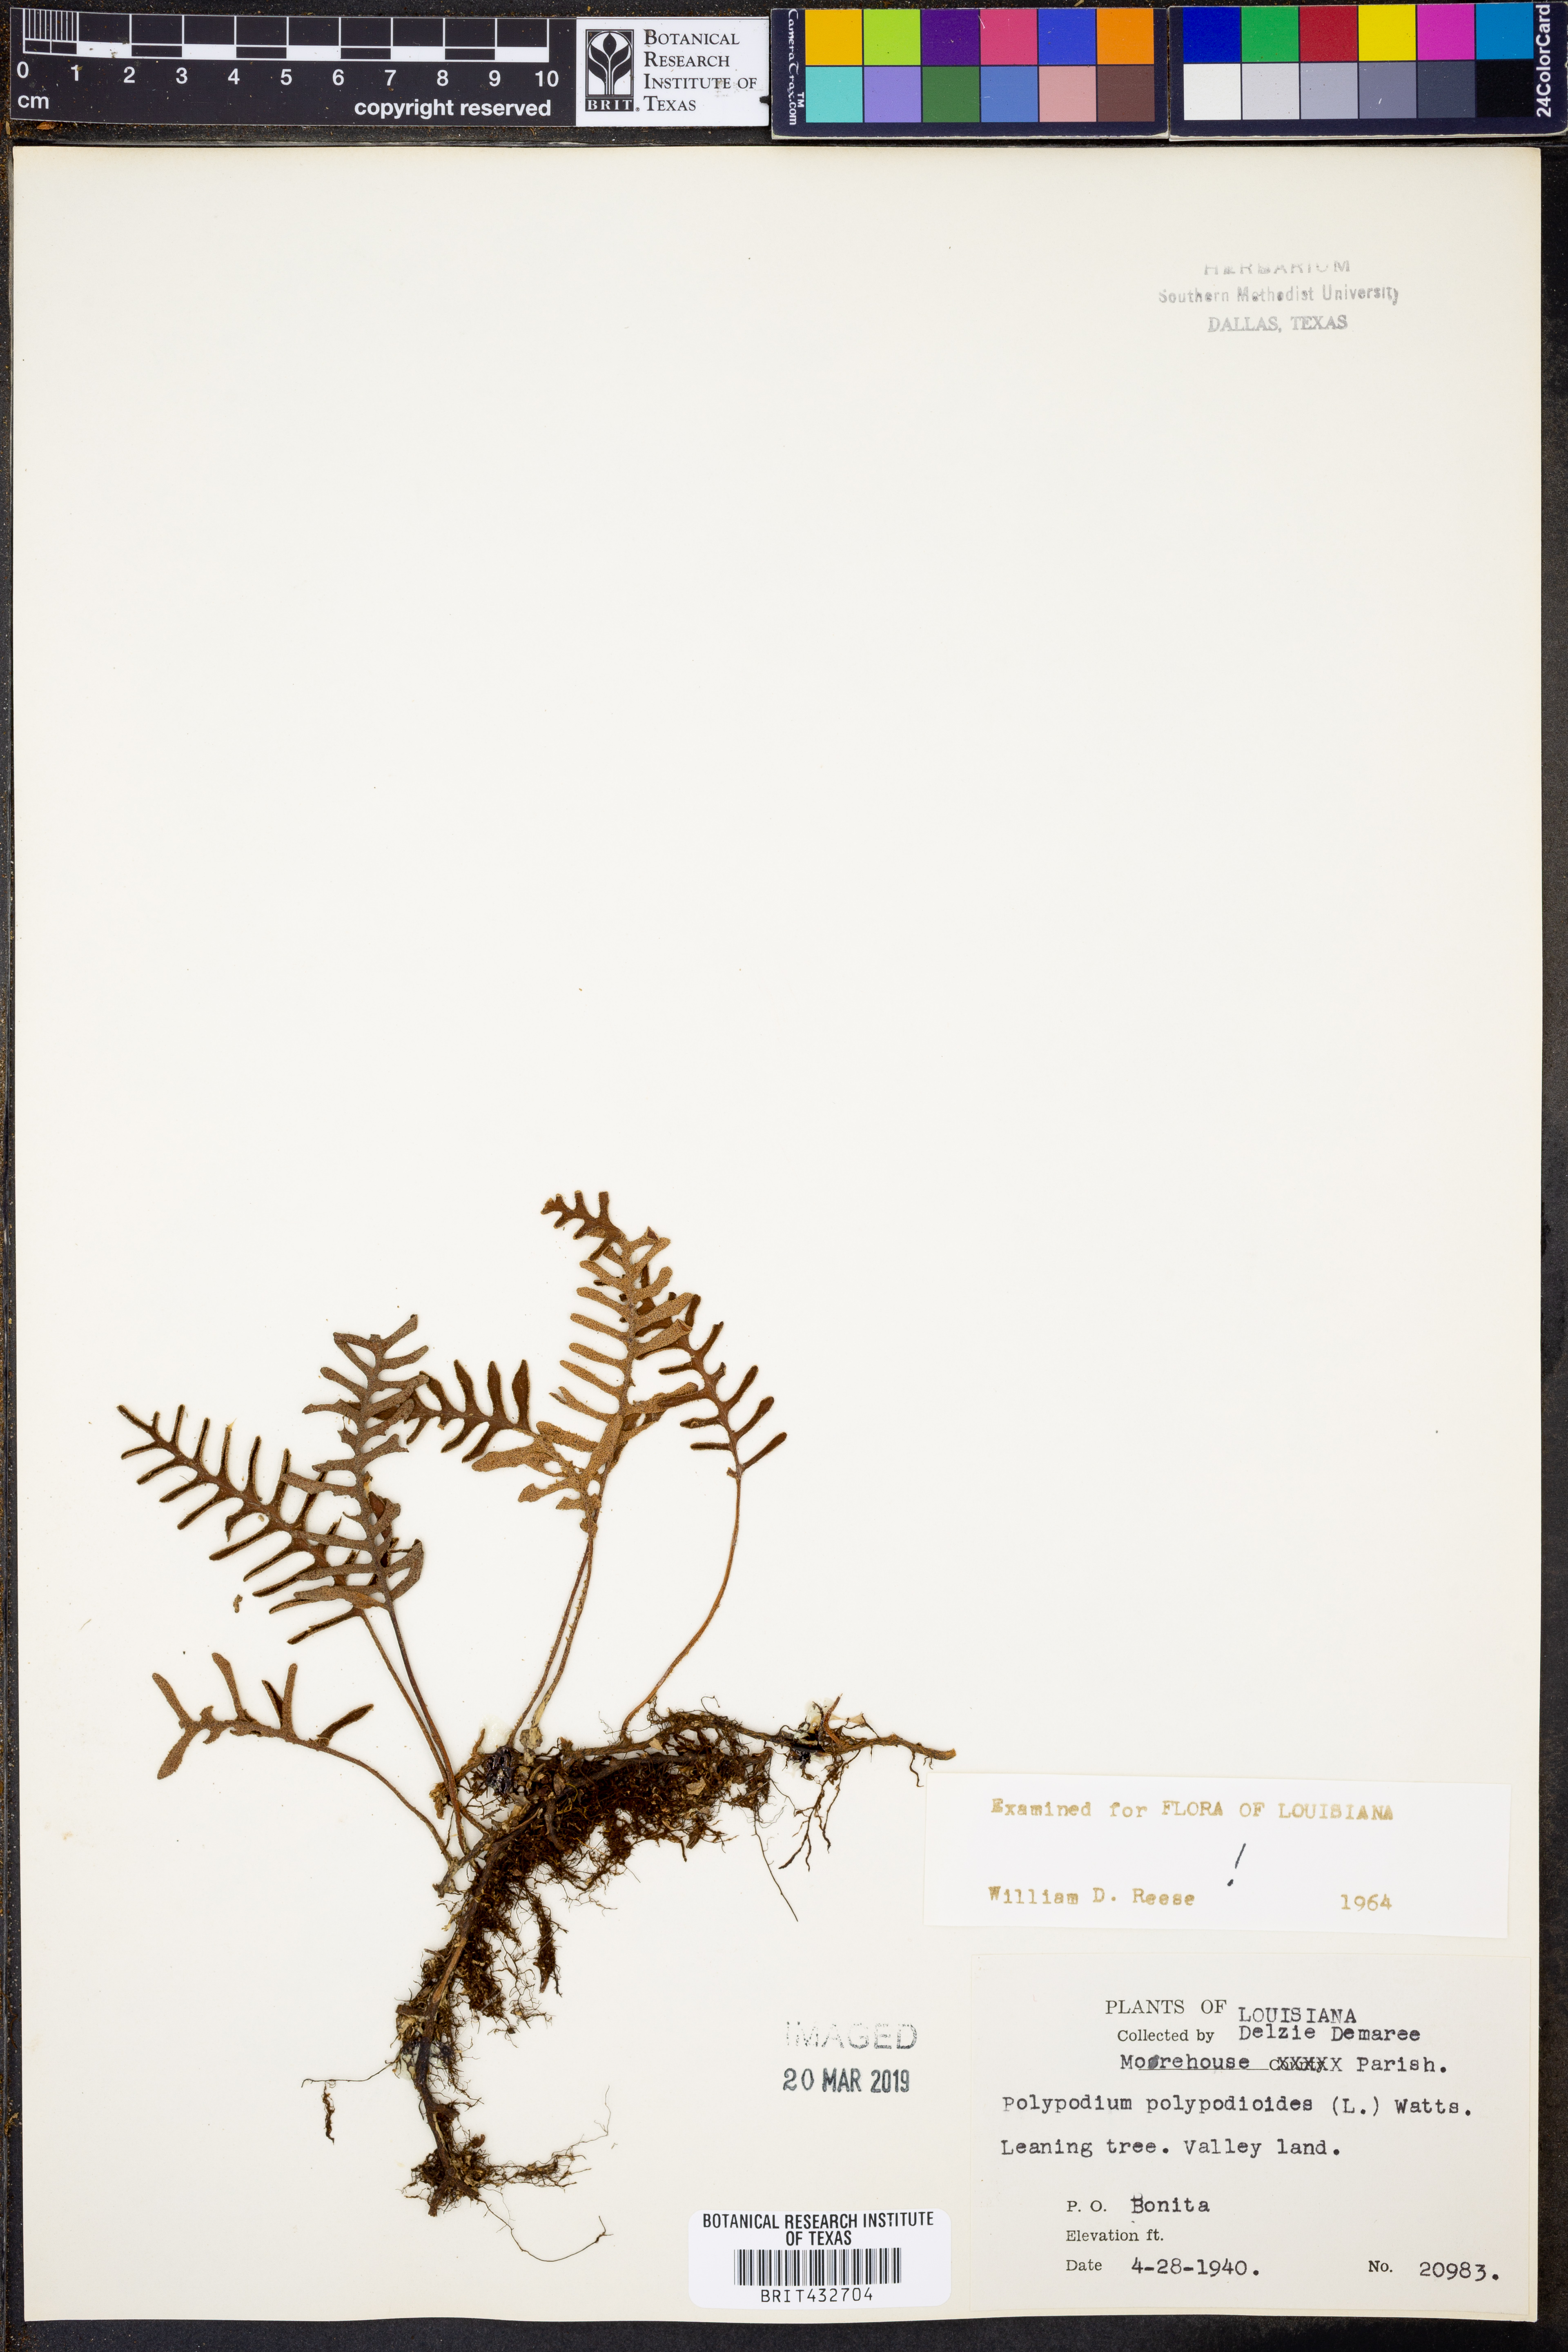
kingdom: Plantae
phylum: Tracheophyta
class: Polypodiopsida
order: Polypodiales
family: Polypodiaceae
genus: Pleopeltis
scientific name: Pleopeltis polypodioides
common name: Resurrection fern
